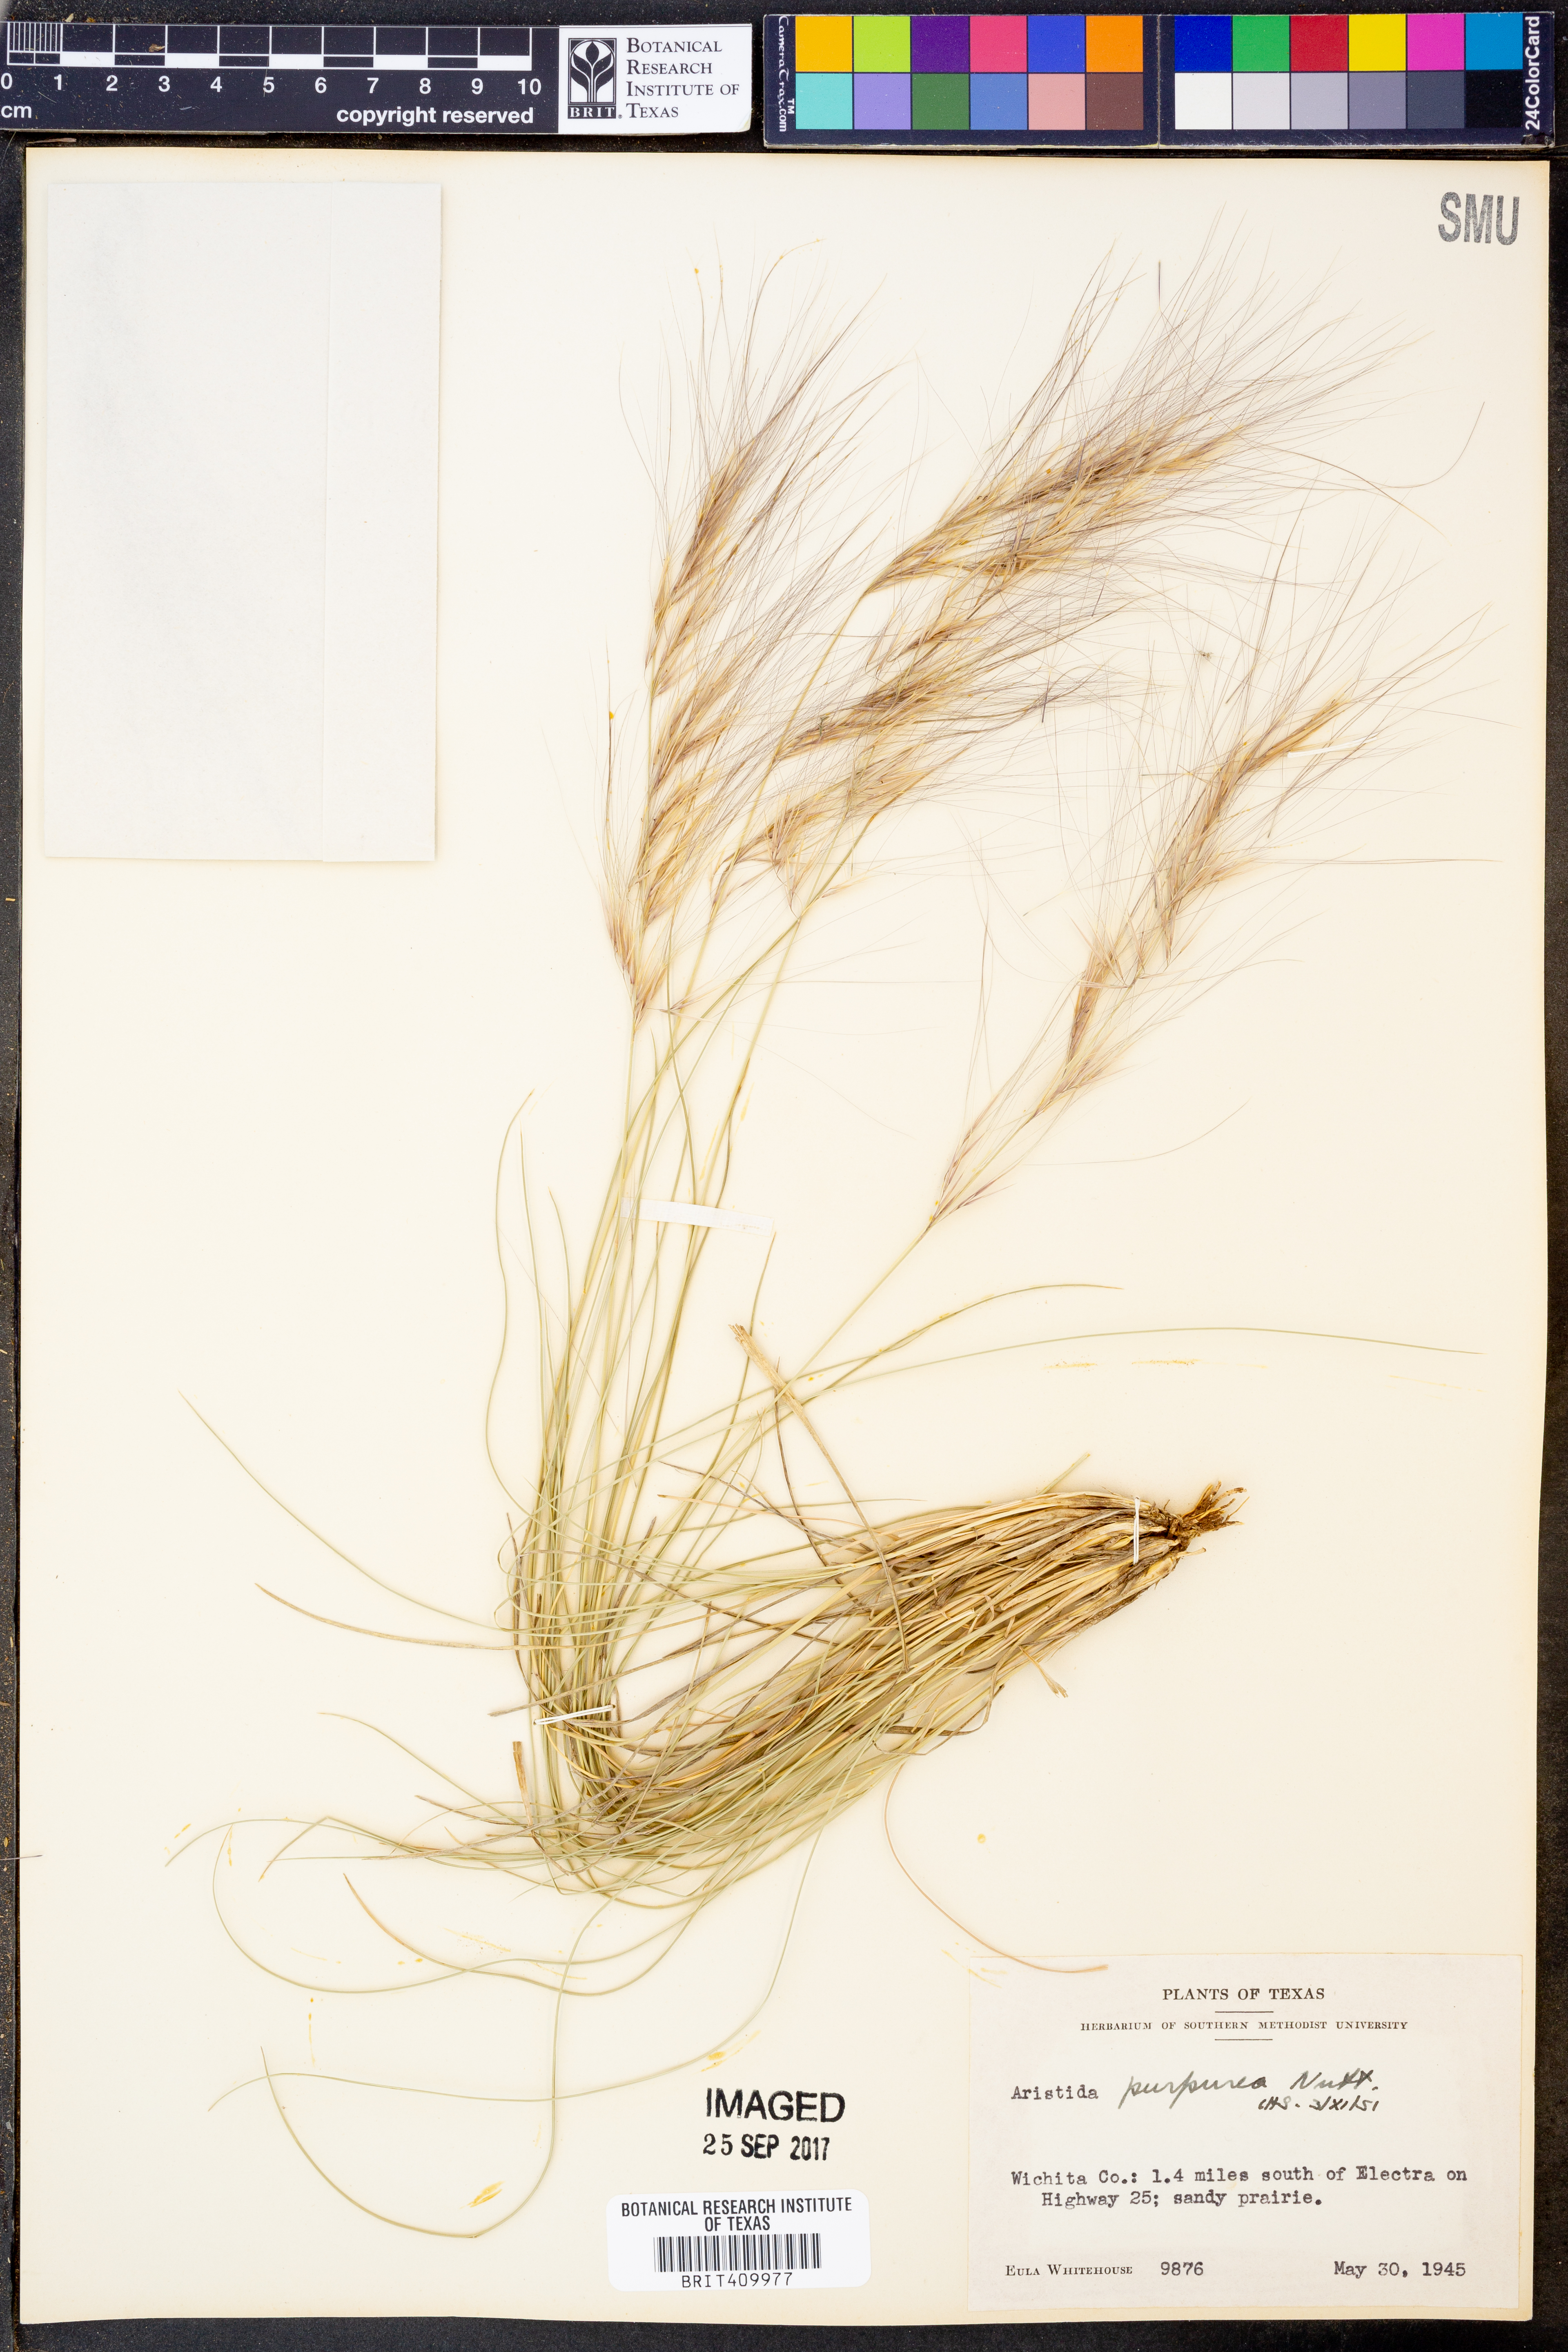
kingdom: Plantae
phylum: Tracheophyta
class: Liliopsida
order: Poales
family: Poaceae
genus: Aristida
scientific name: Aristida purpurea
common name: Purple threeawn
